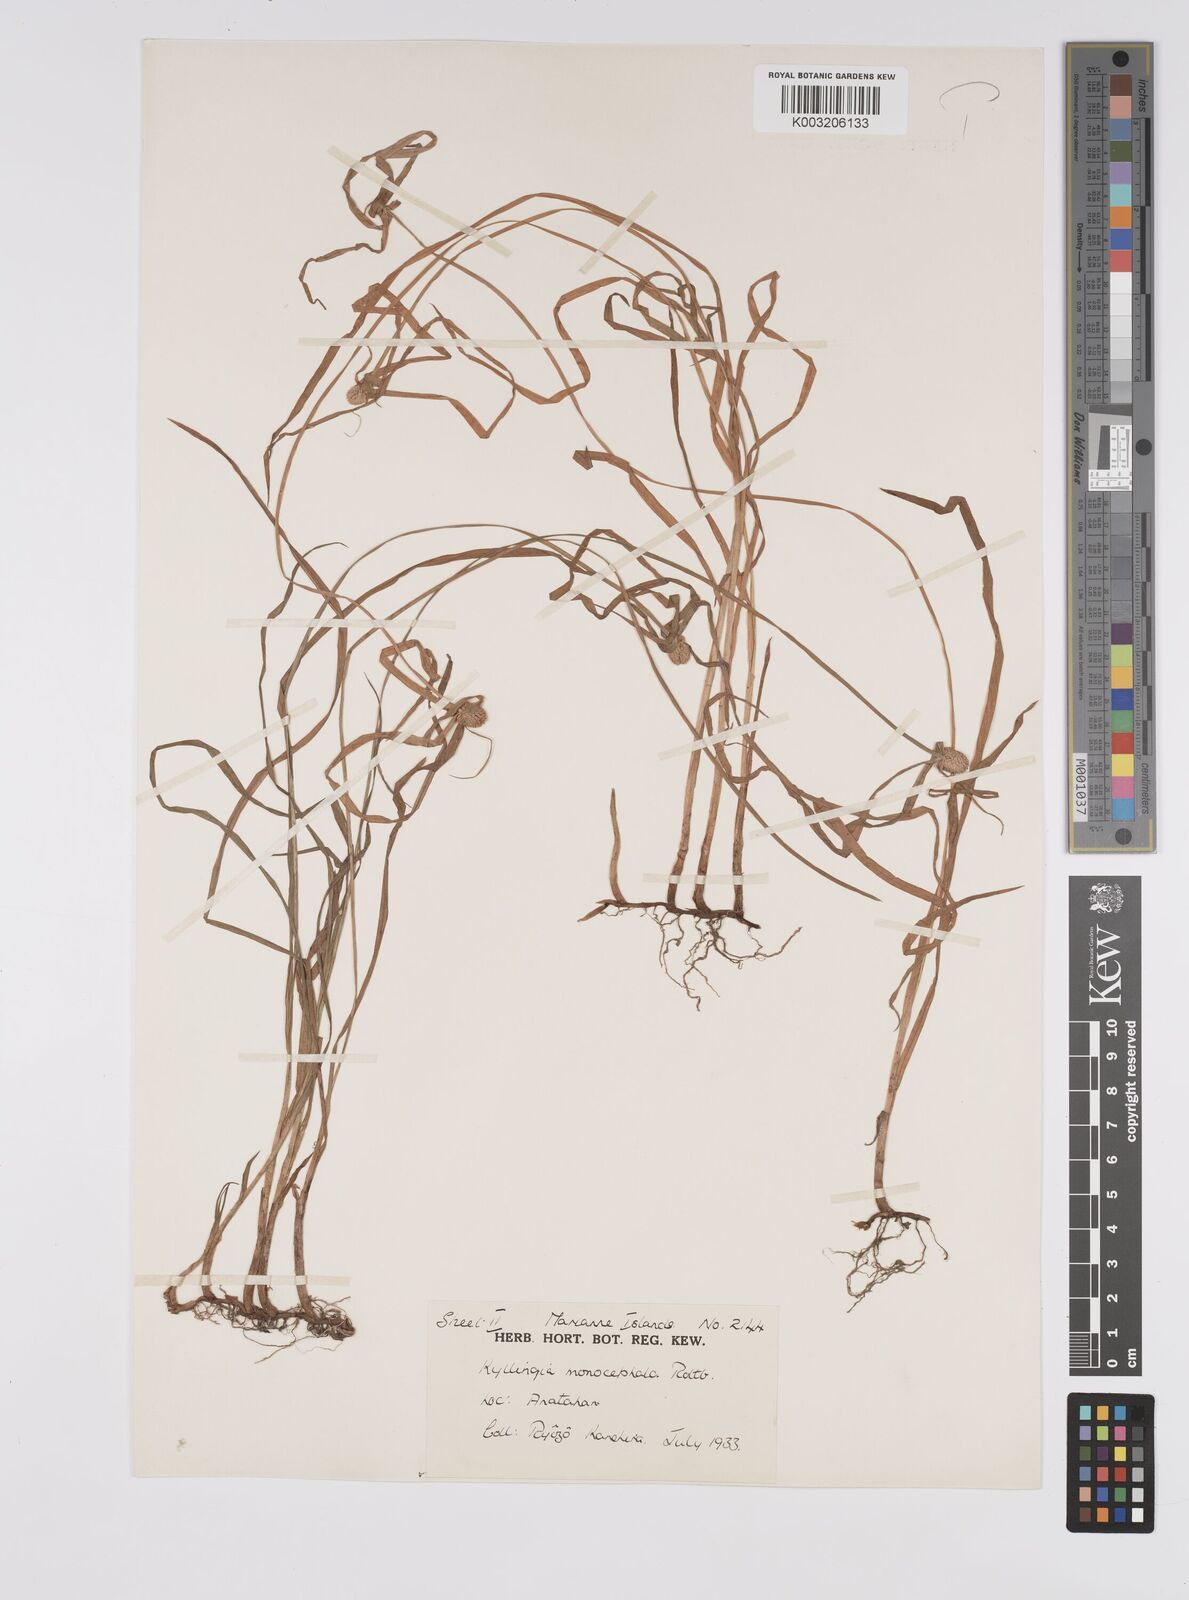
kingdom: Plantae
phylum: Tracheophyta
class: Liliopsida
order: Poales
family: Cyperaceae
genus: Cyperus
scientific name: Cyperus nemoralis
